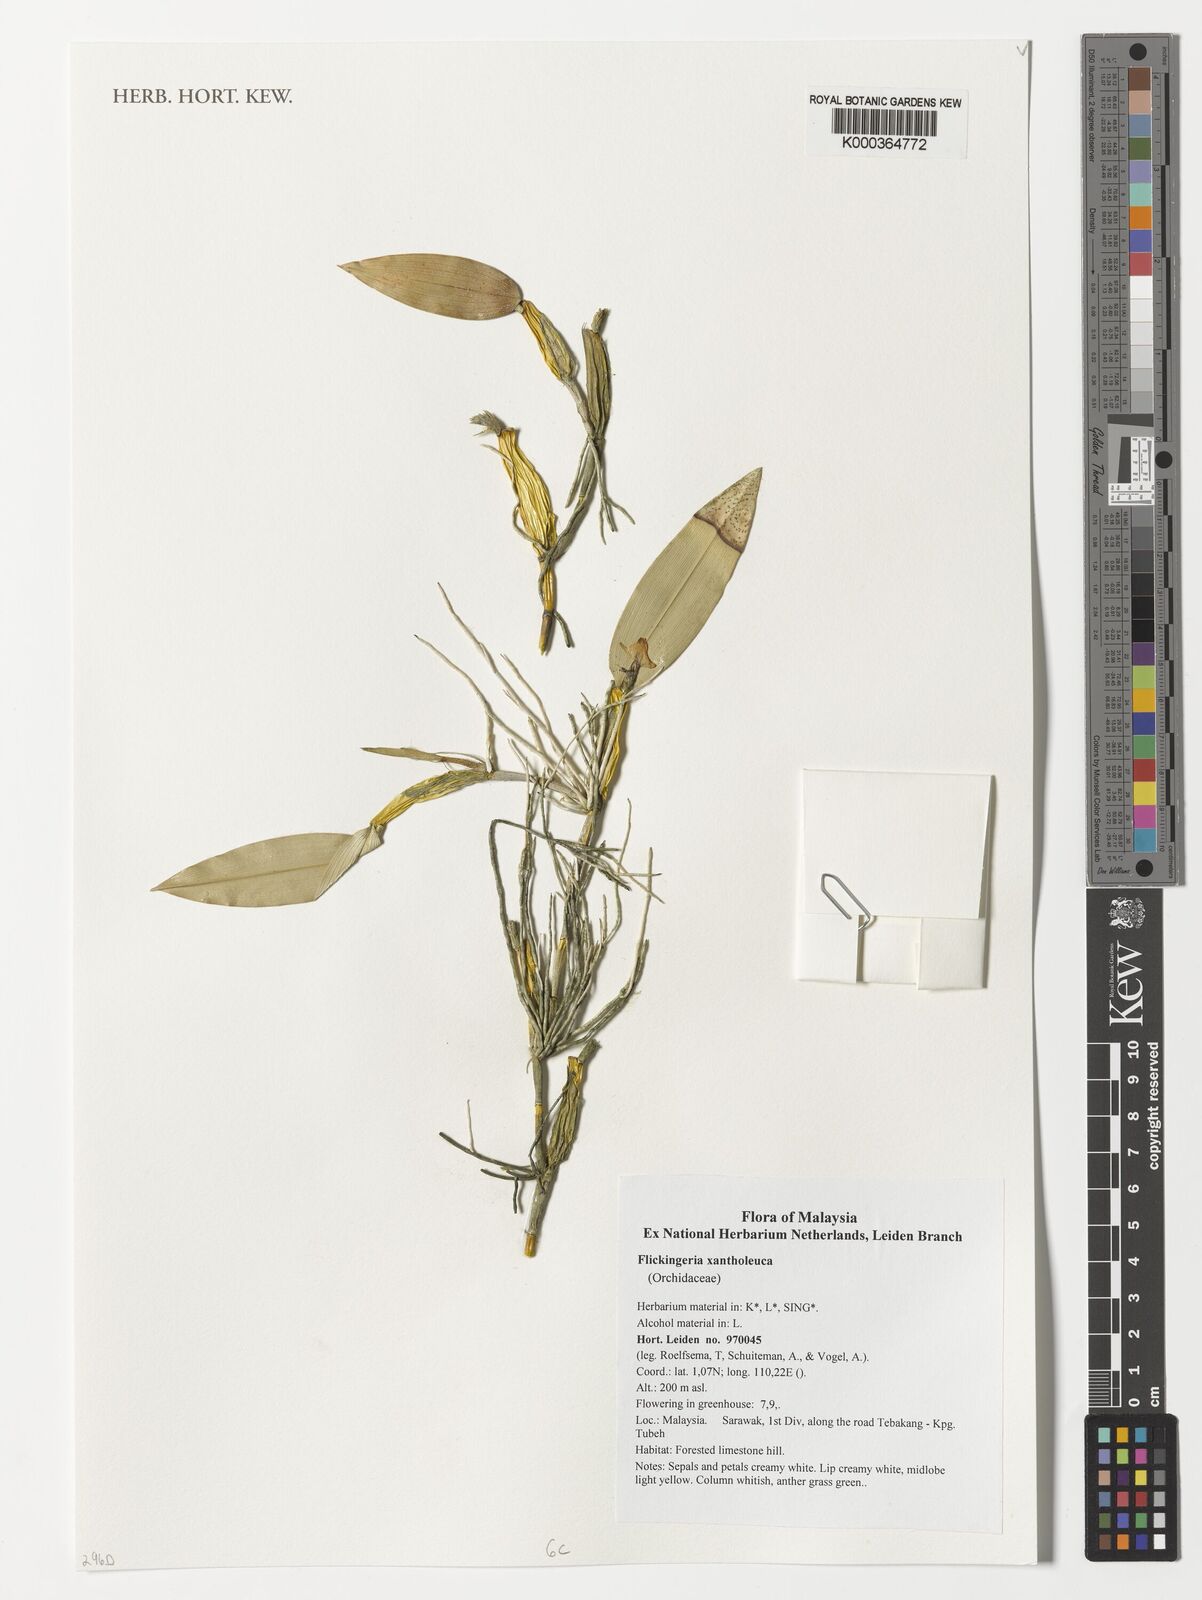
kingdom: Plantae
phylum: Tracheophyta
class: Liliopsida
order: Asparagales
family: Orchidaceae
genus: Dendrobium
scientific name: Dendrobium xantholeucum
